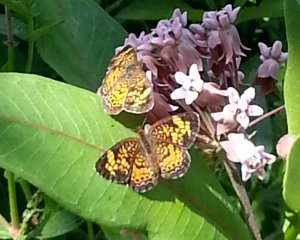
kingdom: Animalia
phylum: Arthropoda
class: Insecta
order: Lepidoptera
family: Nymphalidae
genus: Phyciodes
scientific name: Phyciodes tharos
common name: Pearl Crescent
